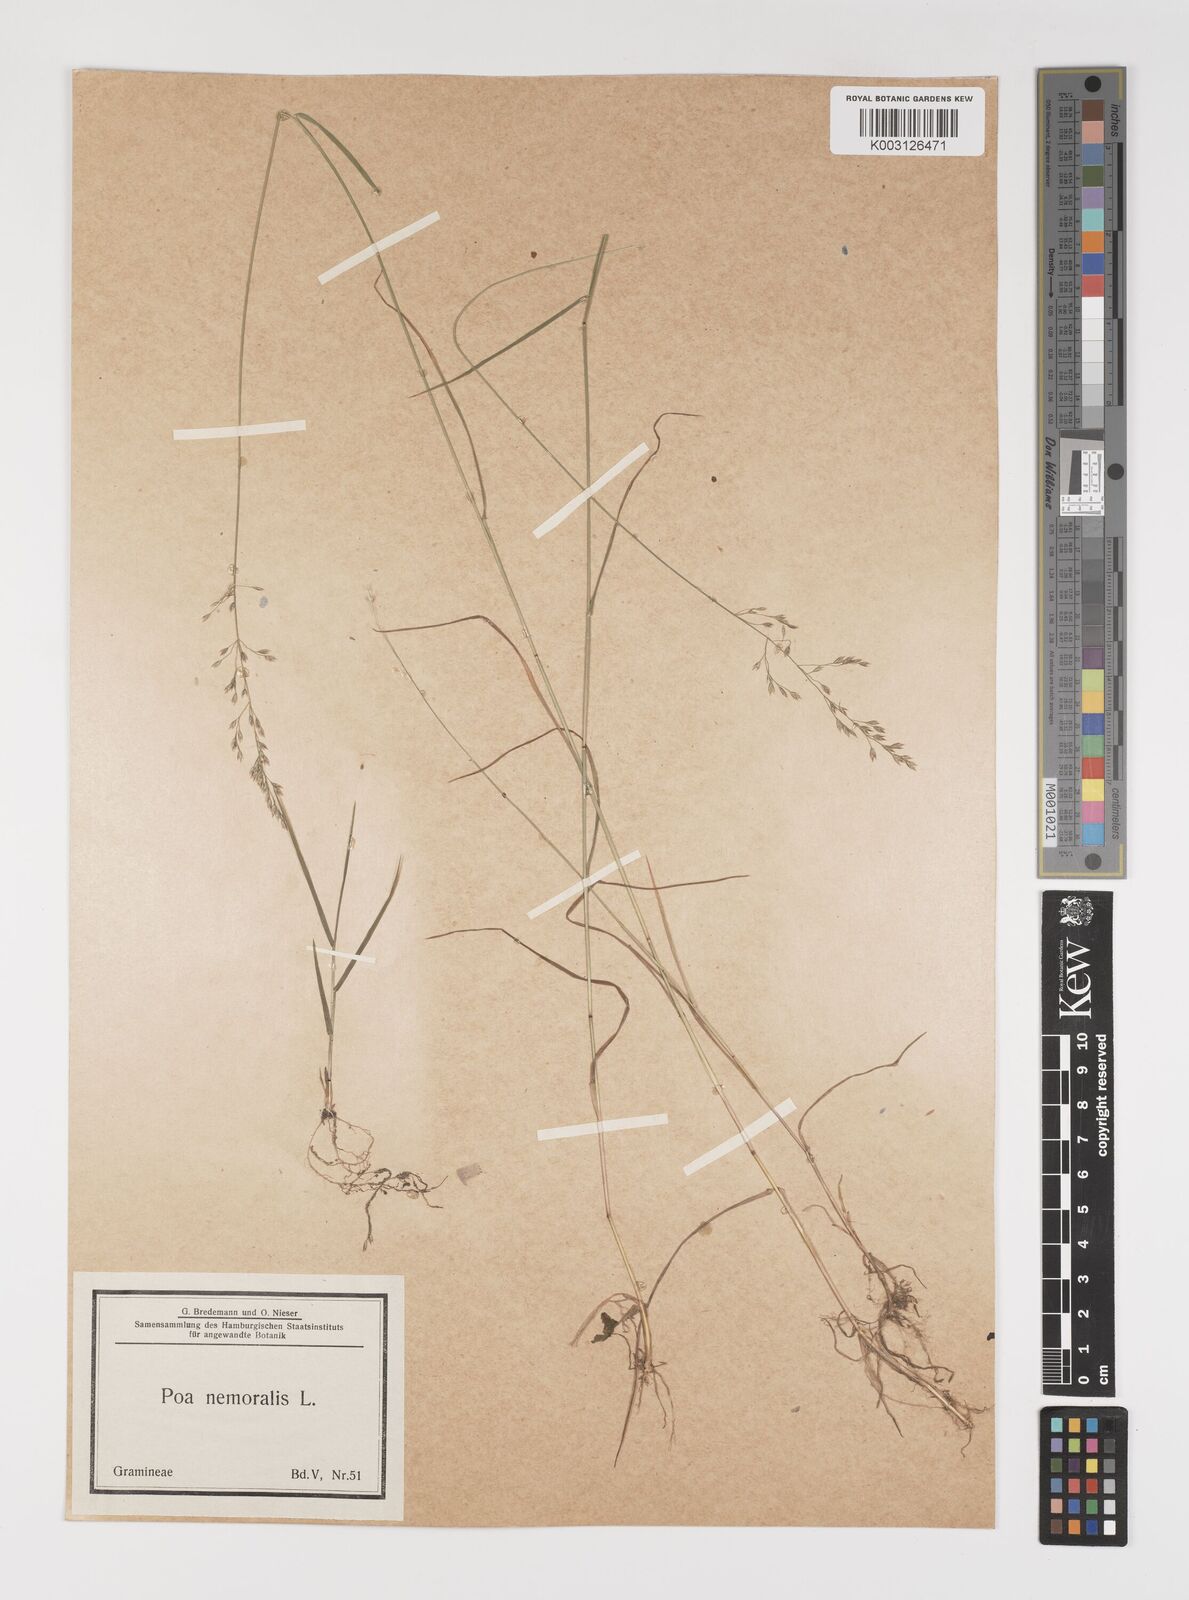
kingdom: Plantae
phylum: Tracheophyta
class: Liliopsida
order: Poales
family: Poaceae
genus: Poa
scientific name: Poa nemoralis
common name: Wood bluegrass
